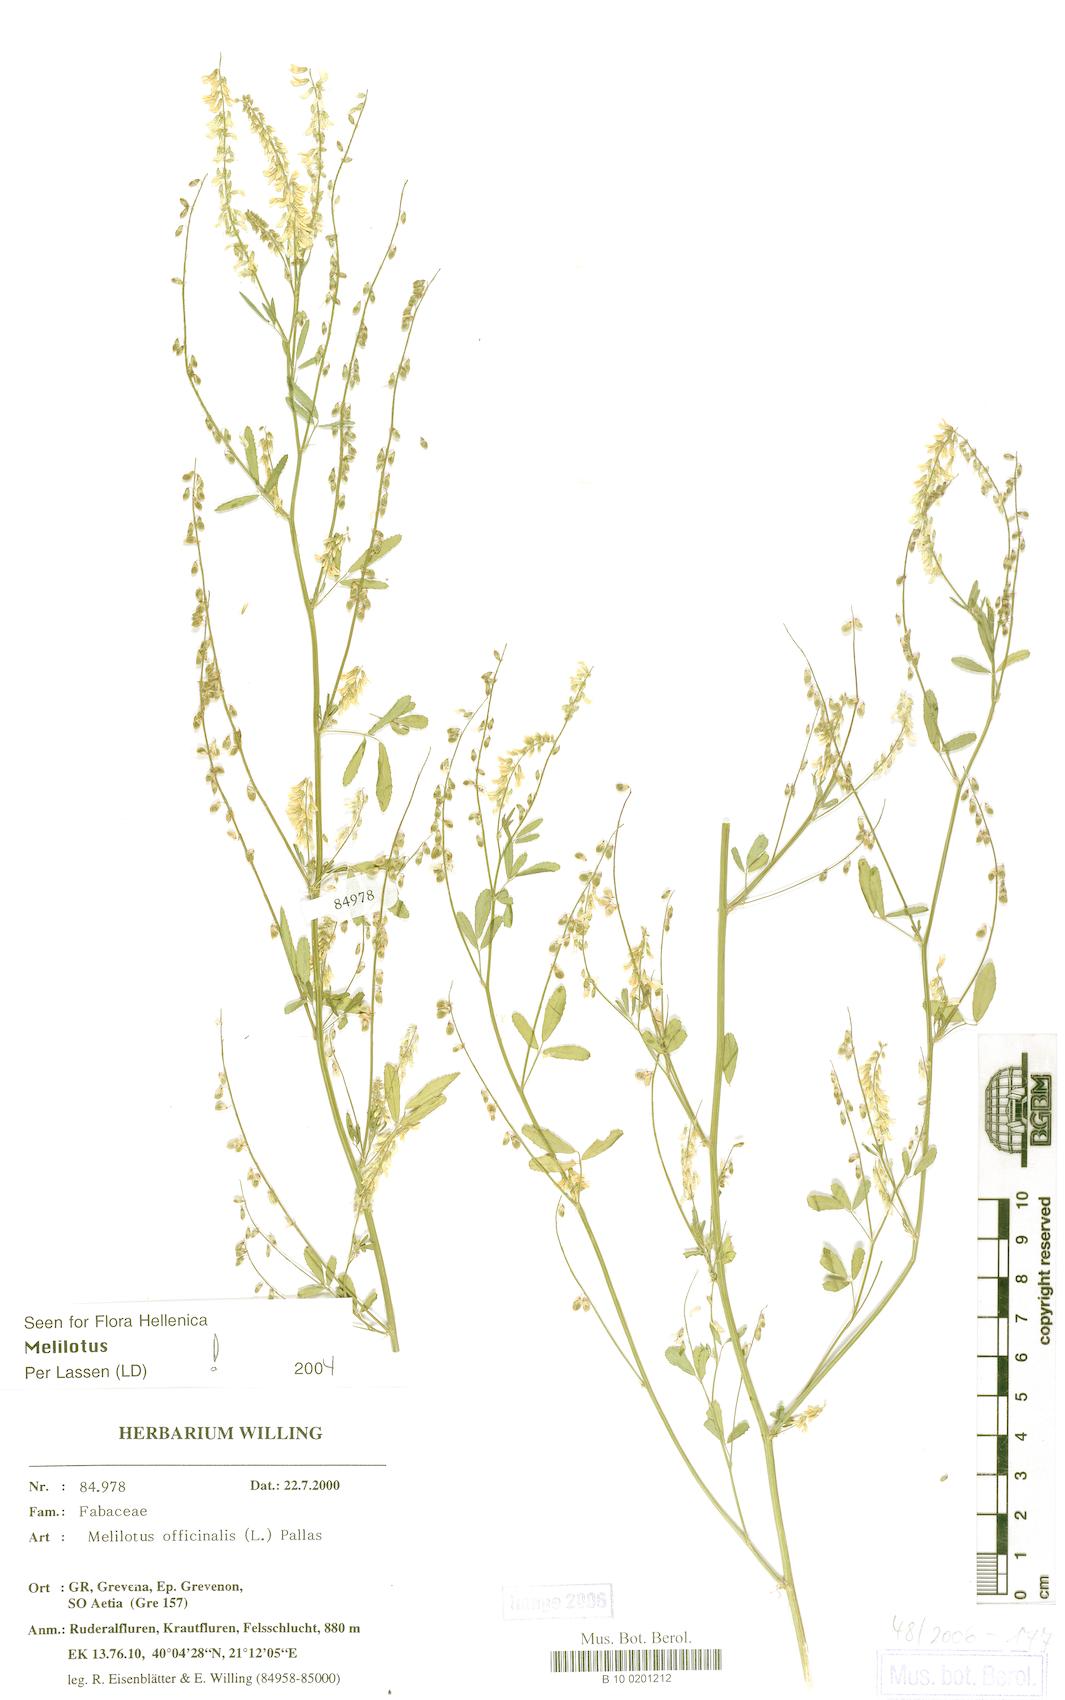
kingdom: Plantae
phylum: Tracheophyta
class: Magnoliopsida
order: Fabales
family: Fabaceae
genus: Melilotus
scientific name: Melilotus officinalis
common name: Sweetclover
